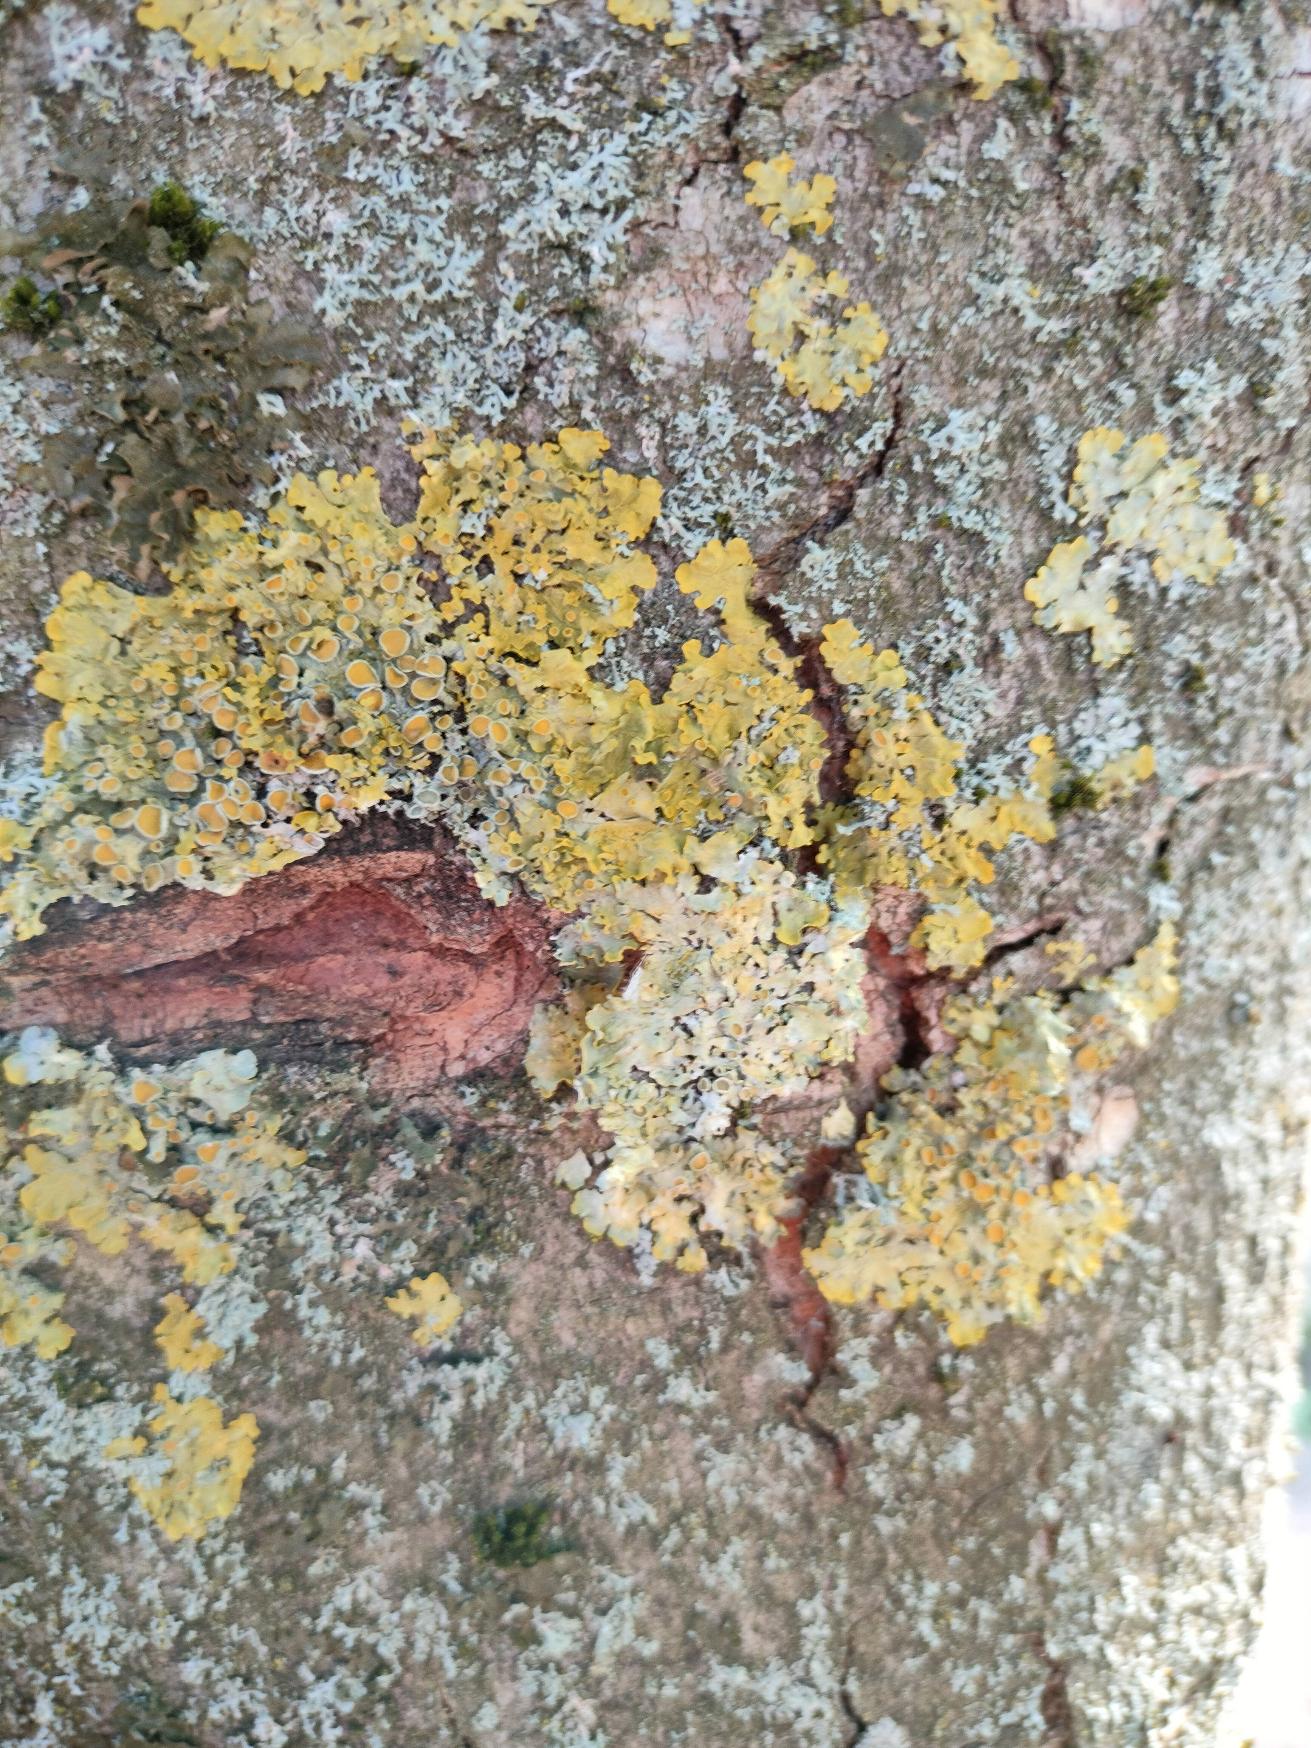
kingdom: Fungi
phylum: Ascomycota
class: Lecanoromycetes
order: Teloschistales
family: Teloschistaceae
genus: Xanthoria
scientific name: Xanthoria parietina
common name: Almindelig væggelav
